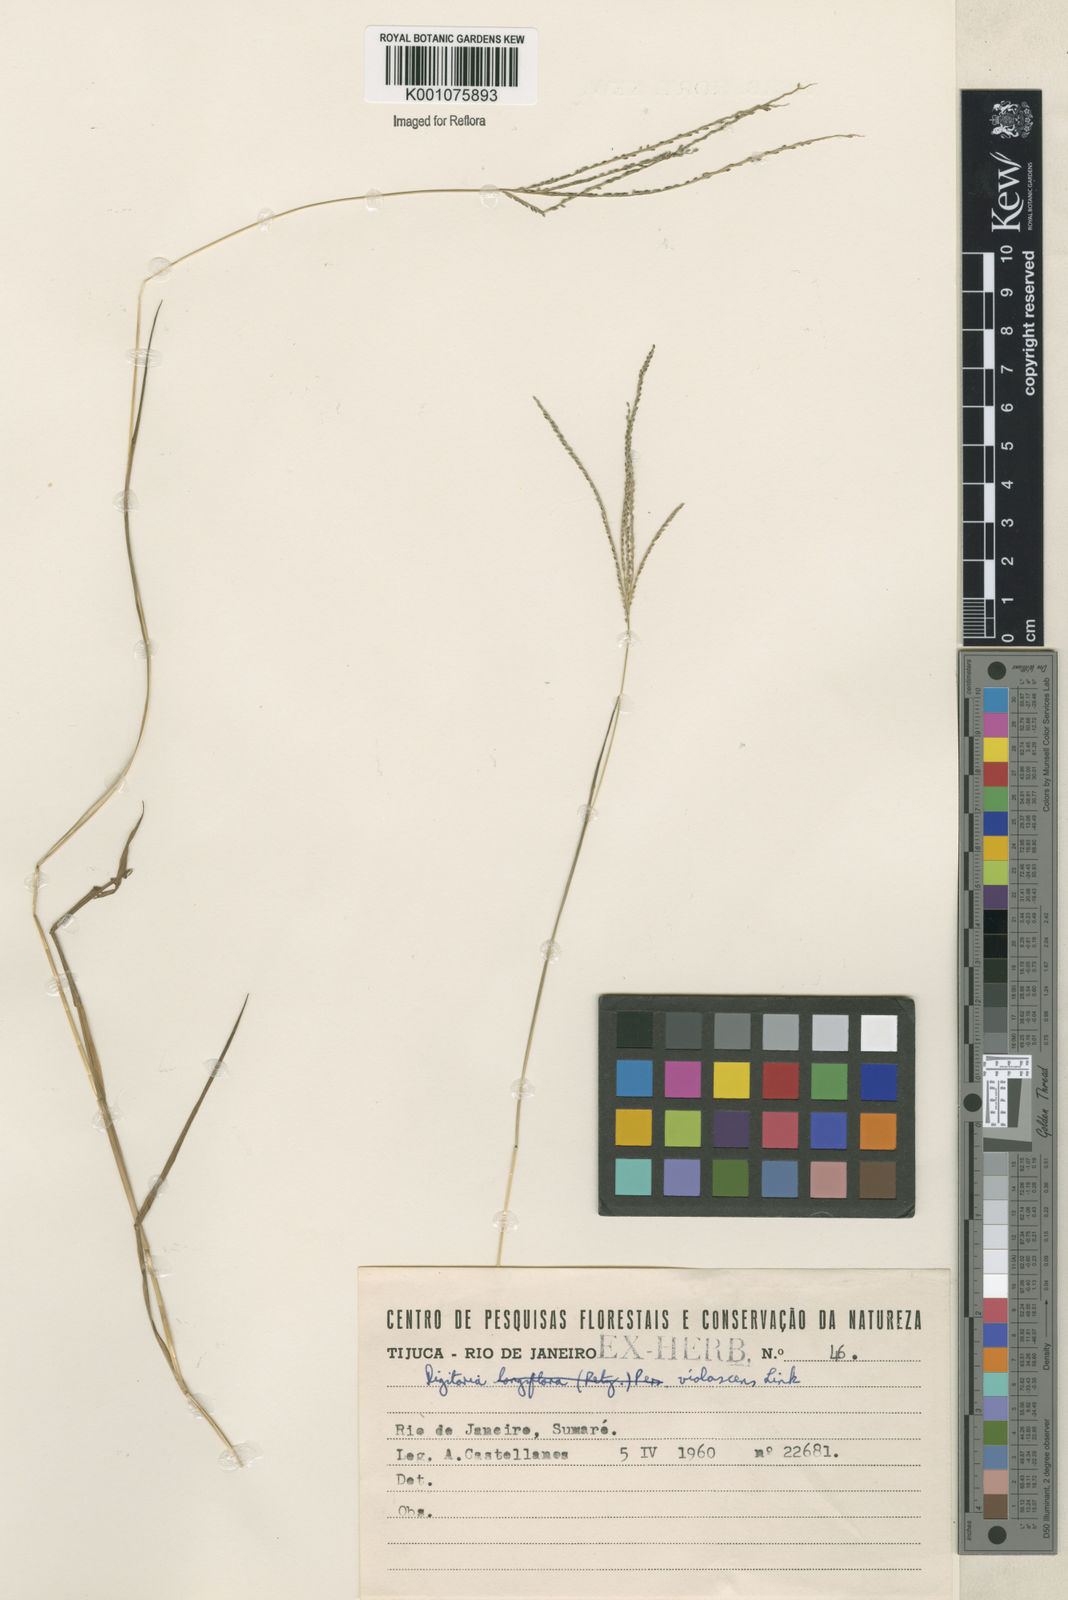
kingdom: Plantae
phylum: Tracheophyta
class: Liliopsida
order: Poales
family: Poaceae
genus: Digitaria
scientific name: Digitaria violascens
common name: Violet crabgrass
